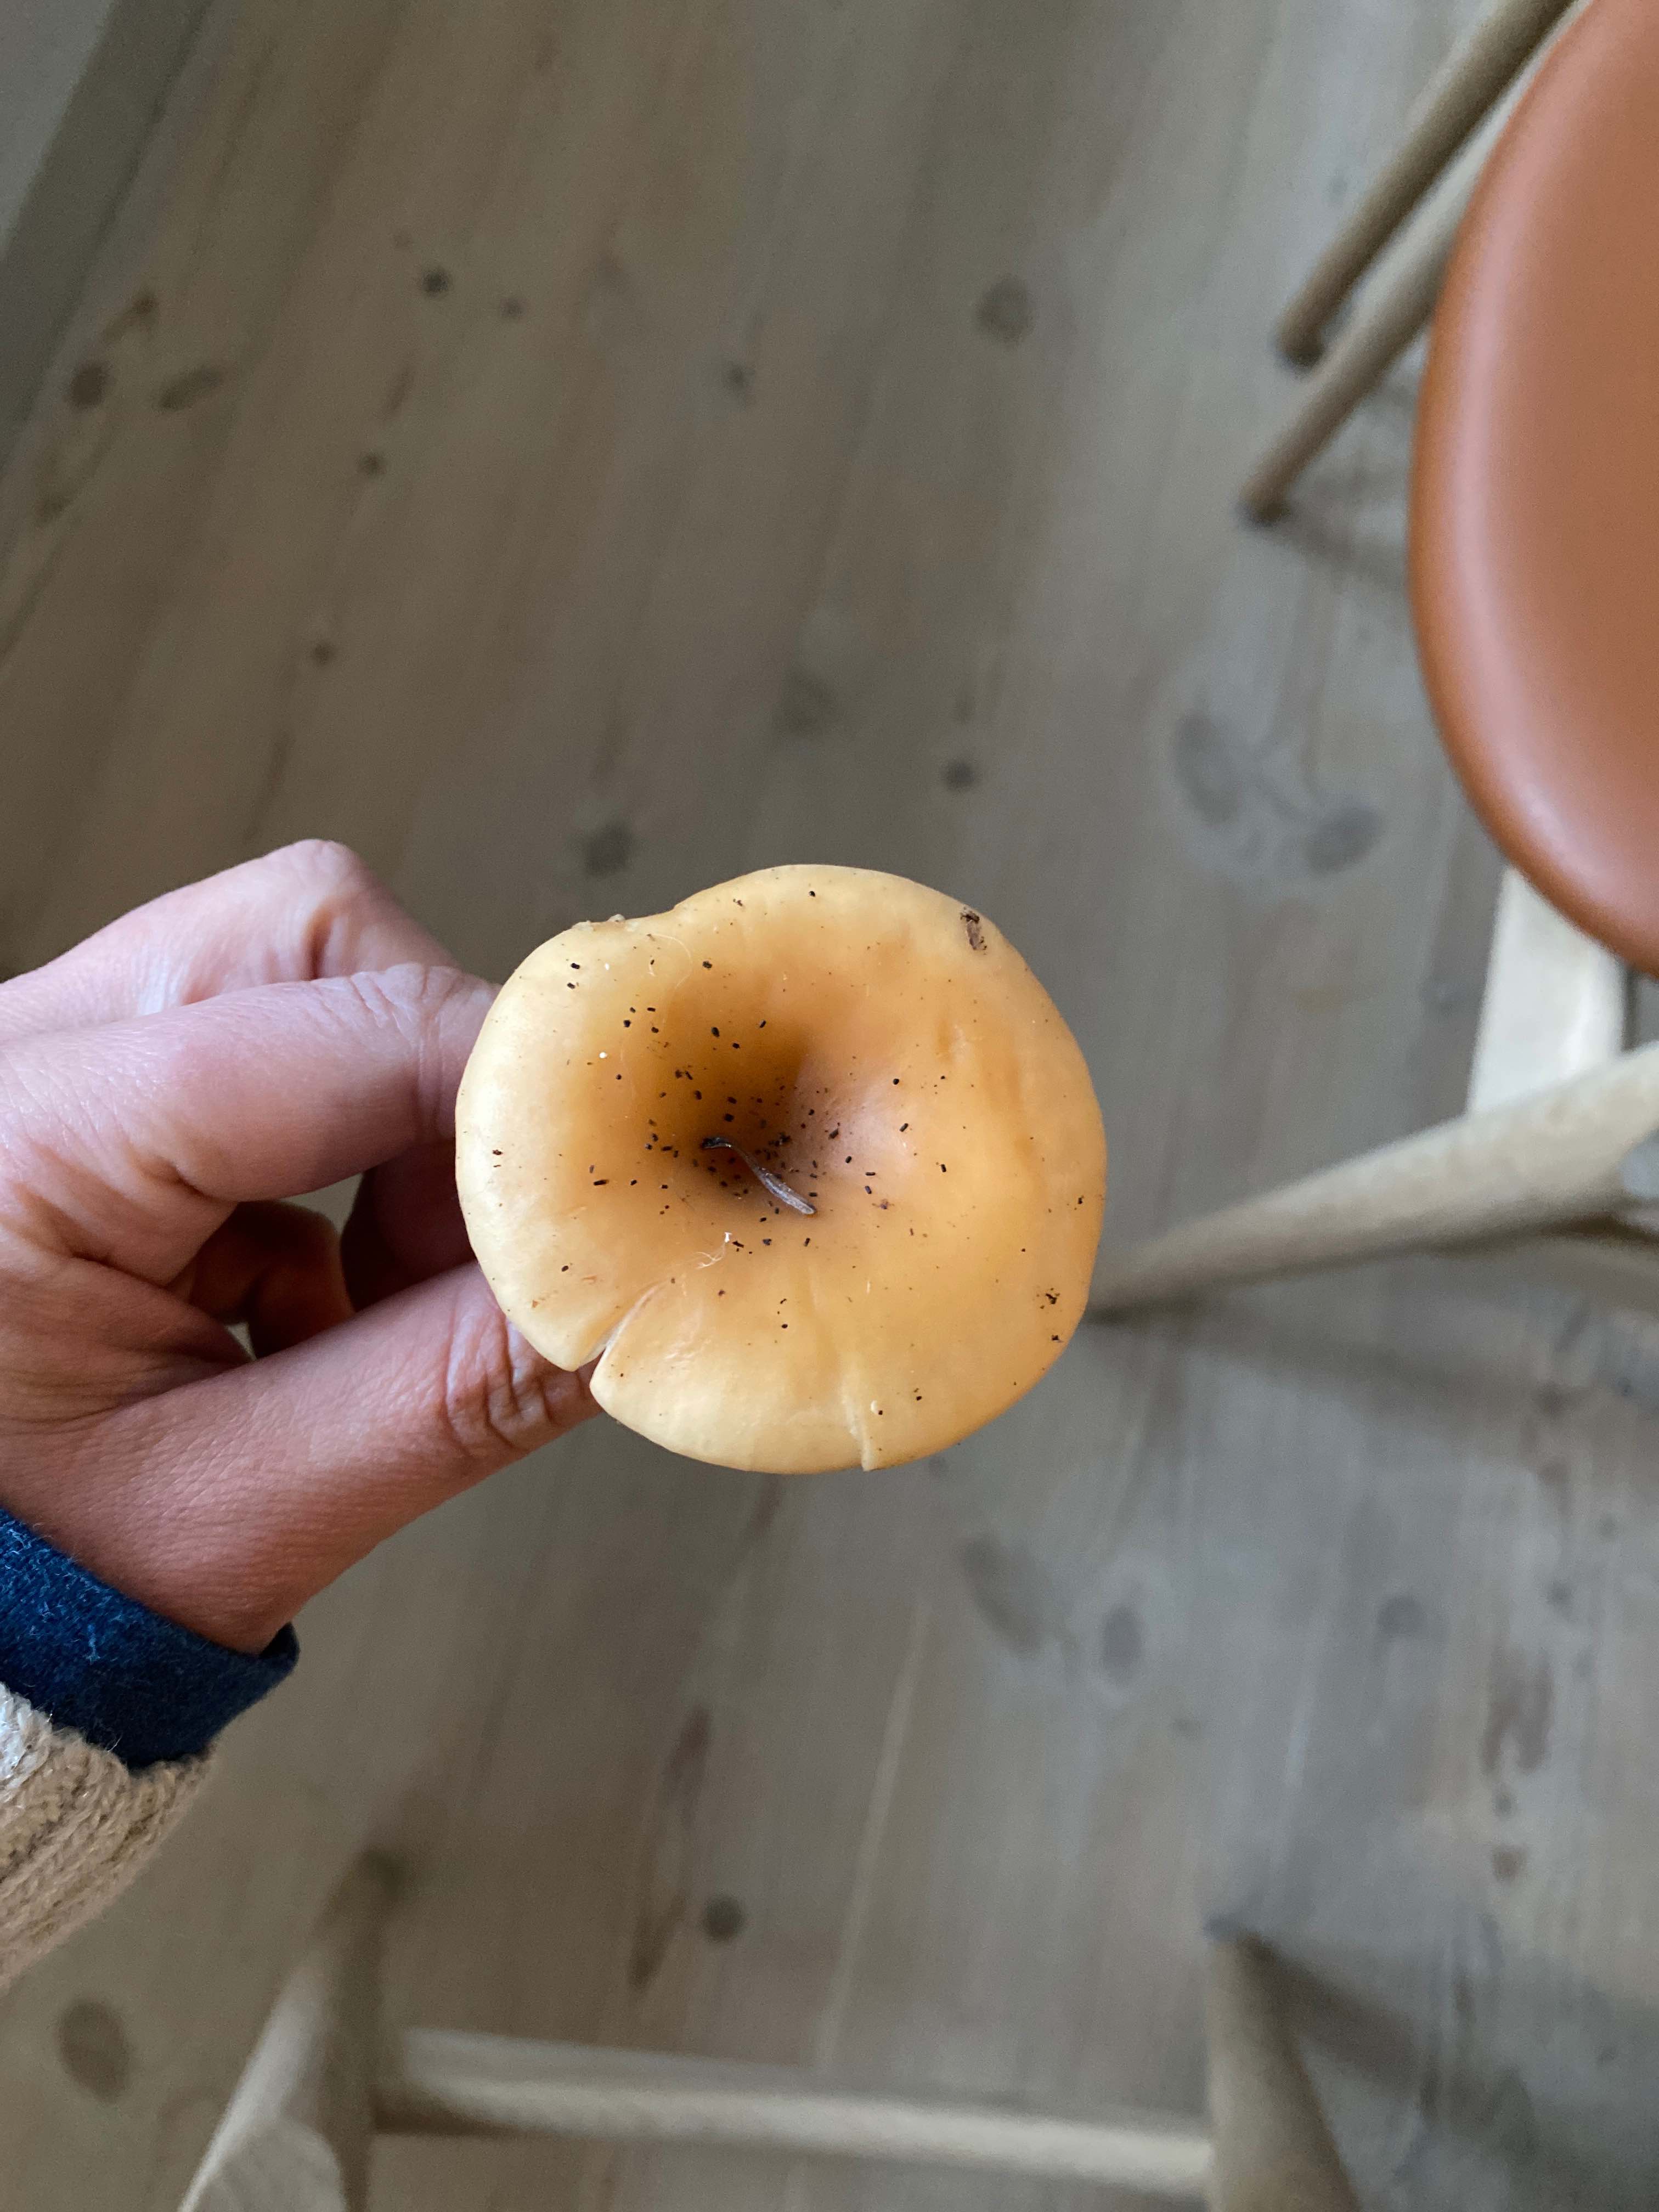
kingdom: Fungi
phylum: Basidiomycota
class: Agaricomycetes
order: Agaricales
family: Tricholomataceae
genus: Paralepista
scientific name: Paralepista flaccida
